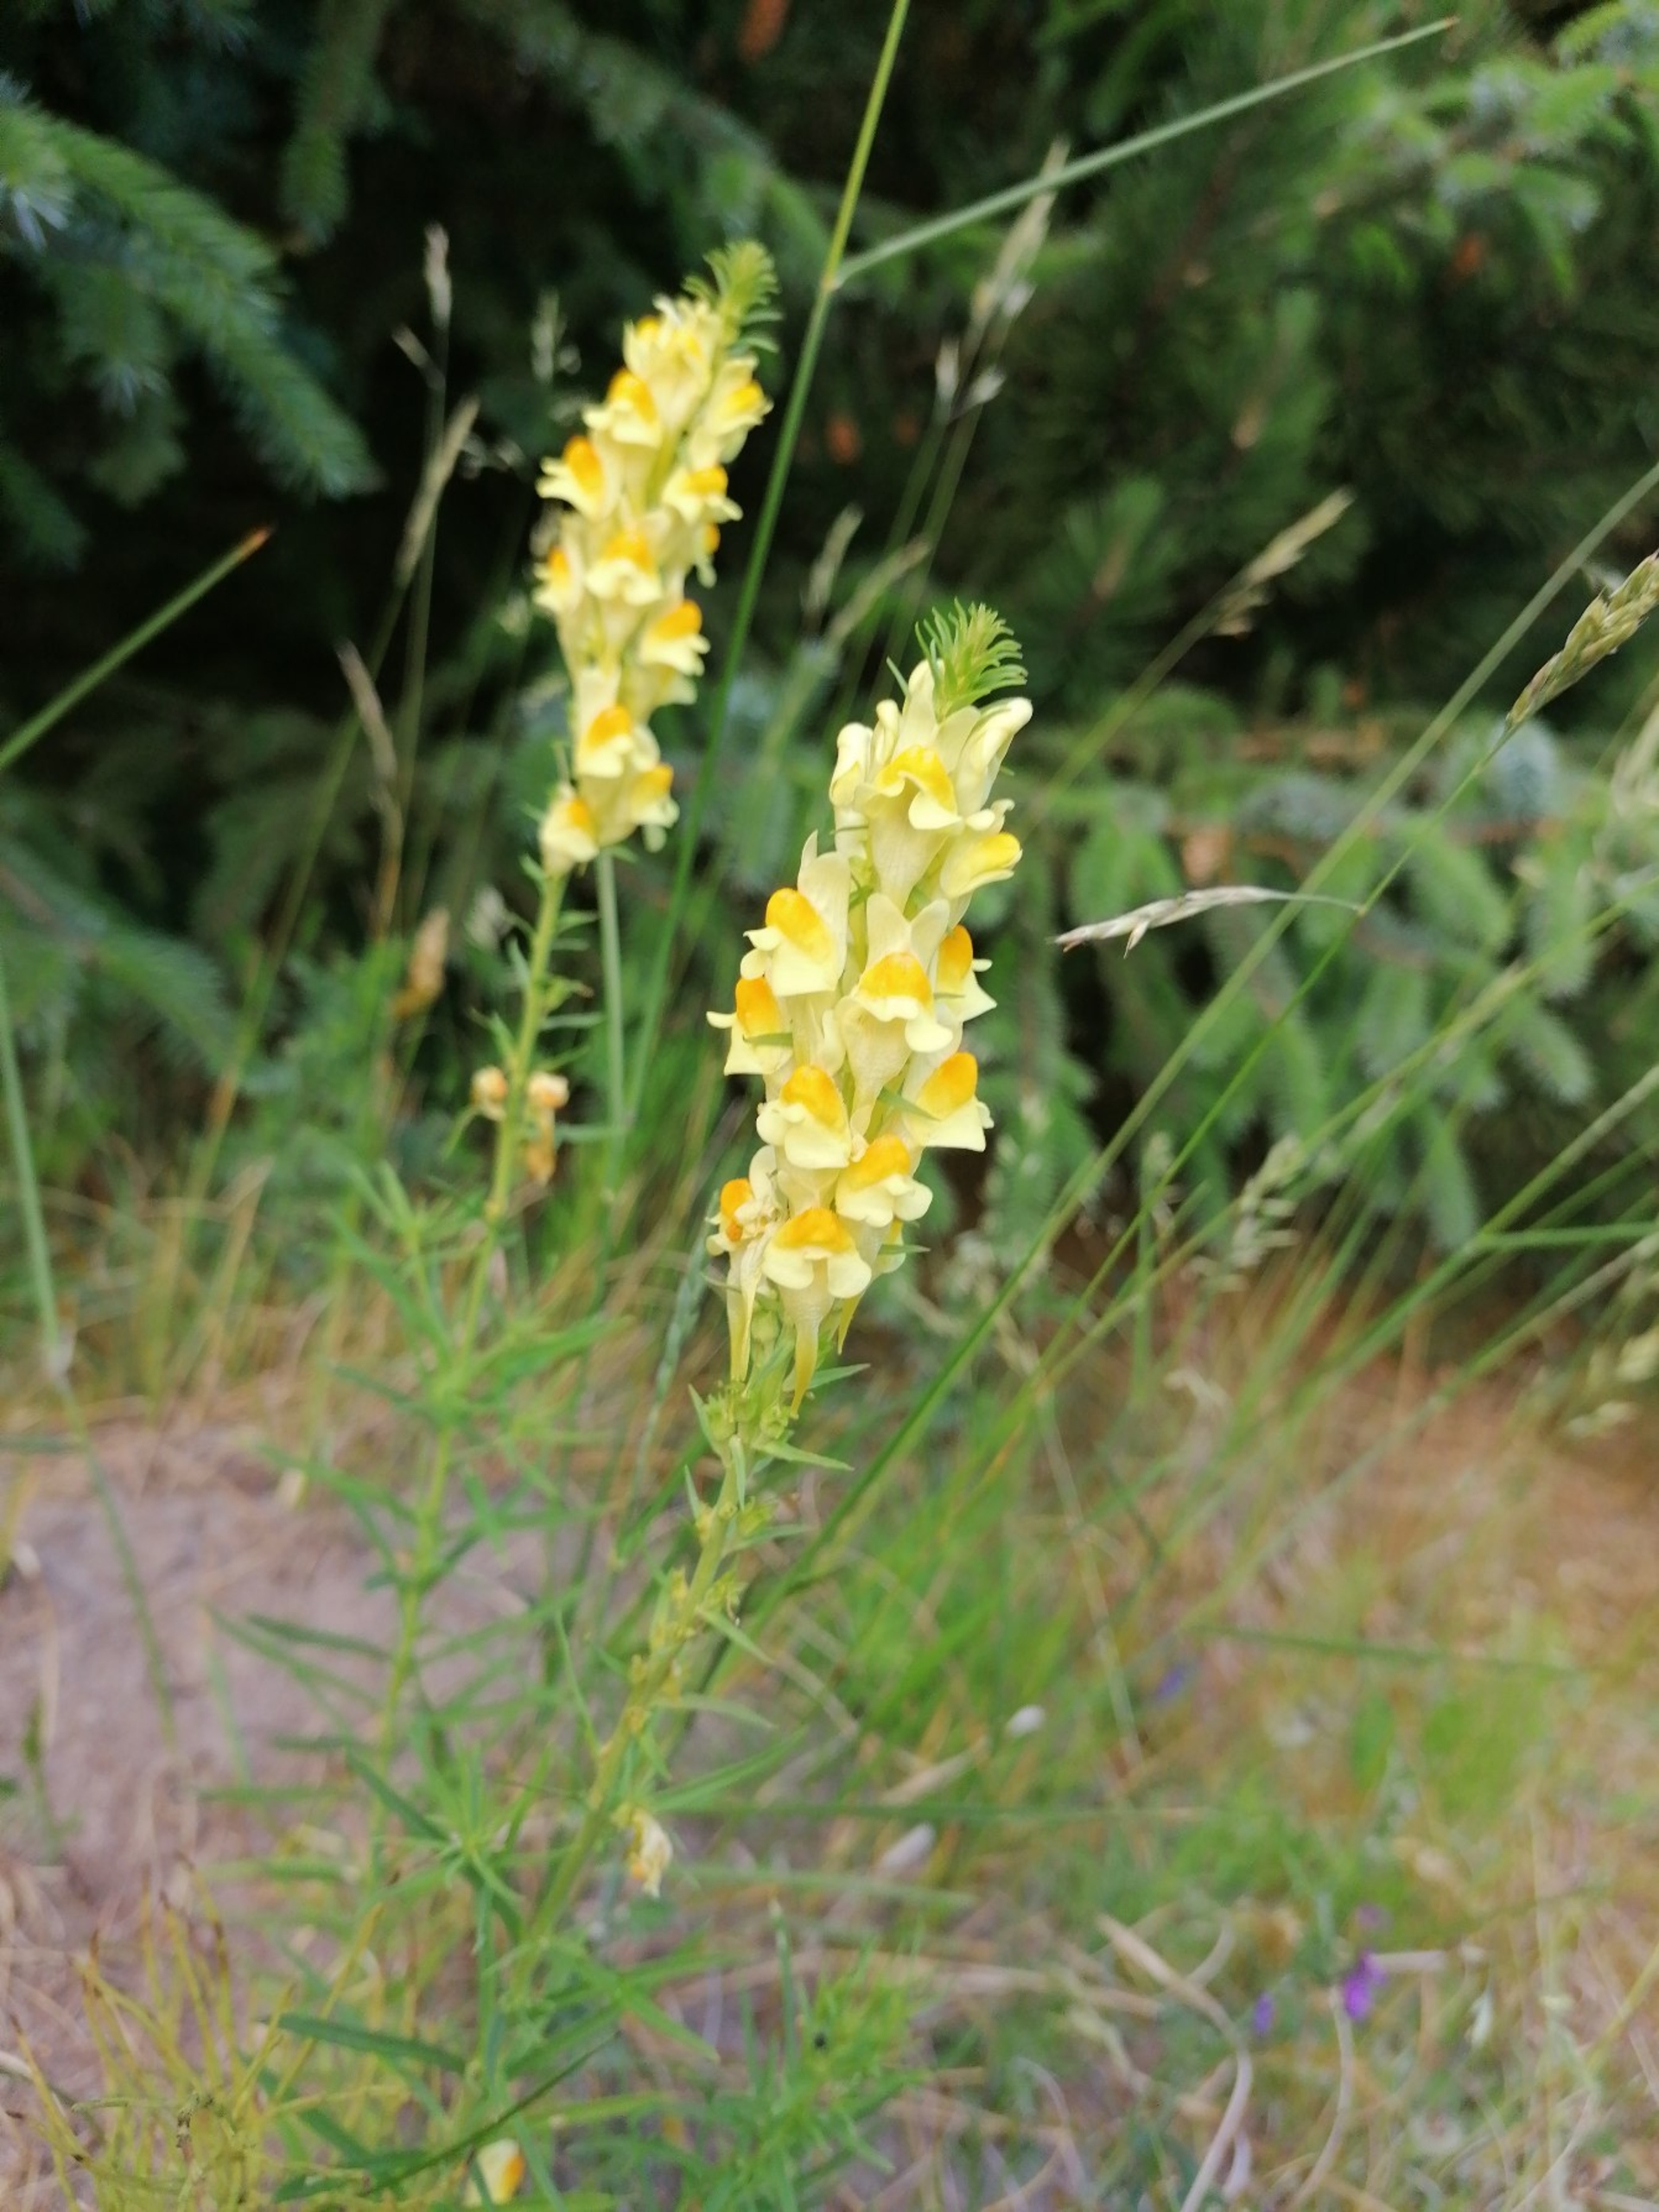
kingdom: Plantae
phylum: Tracheophyta
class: Magnoliopsida
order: Lamiales
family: Plantaginaceae
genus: Linaria
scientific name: Linaria vulgaris
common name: Almindelig torskemund
